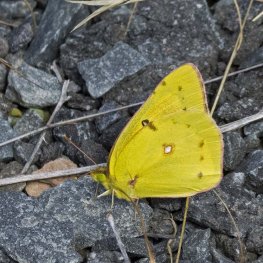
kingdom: Animalia
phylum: Arthropoda
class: Insecta
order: Lepidoptera
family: Pieridae
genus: Colias
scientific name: Colias eurytheme
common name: Orange Sulphur
